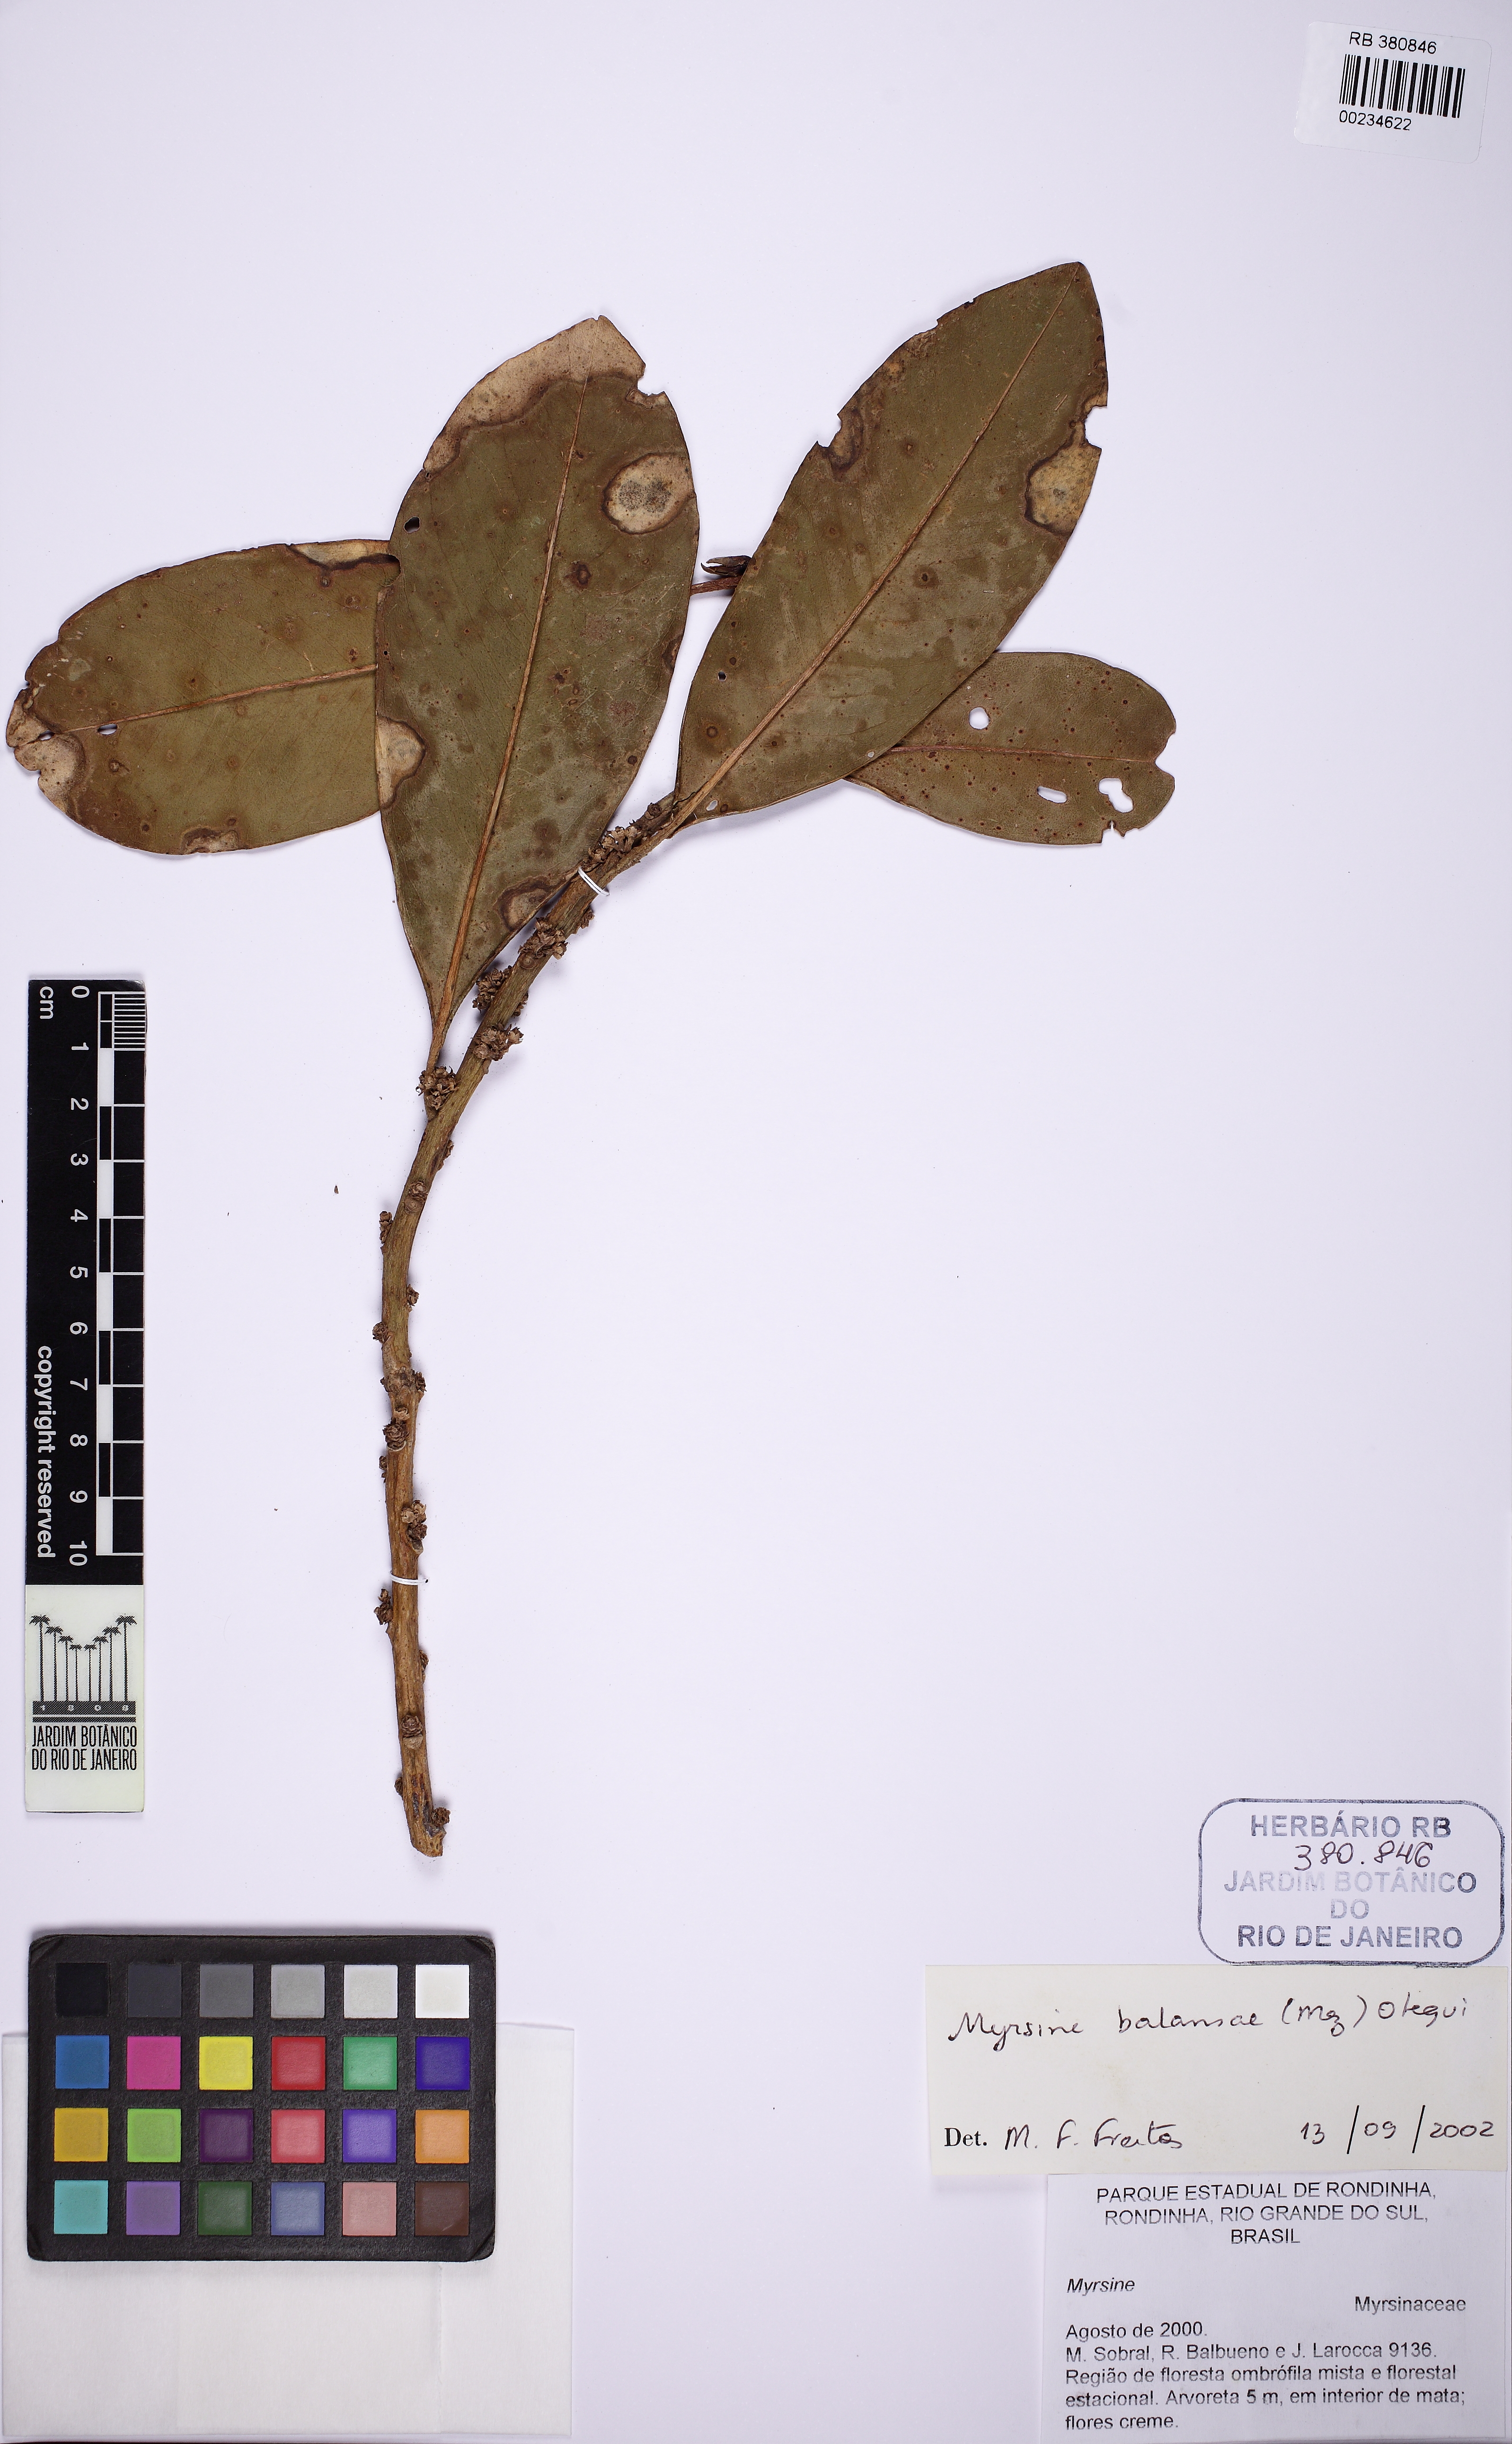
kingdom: Plantae
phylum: Tracheophyta
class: Magnoliopsida
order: Ericales
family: Primulaceae
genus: Myrsine
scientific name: Myrsine balansae
